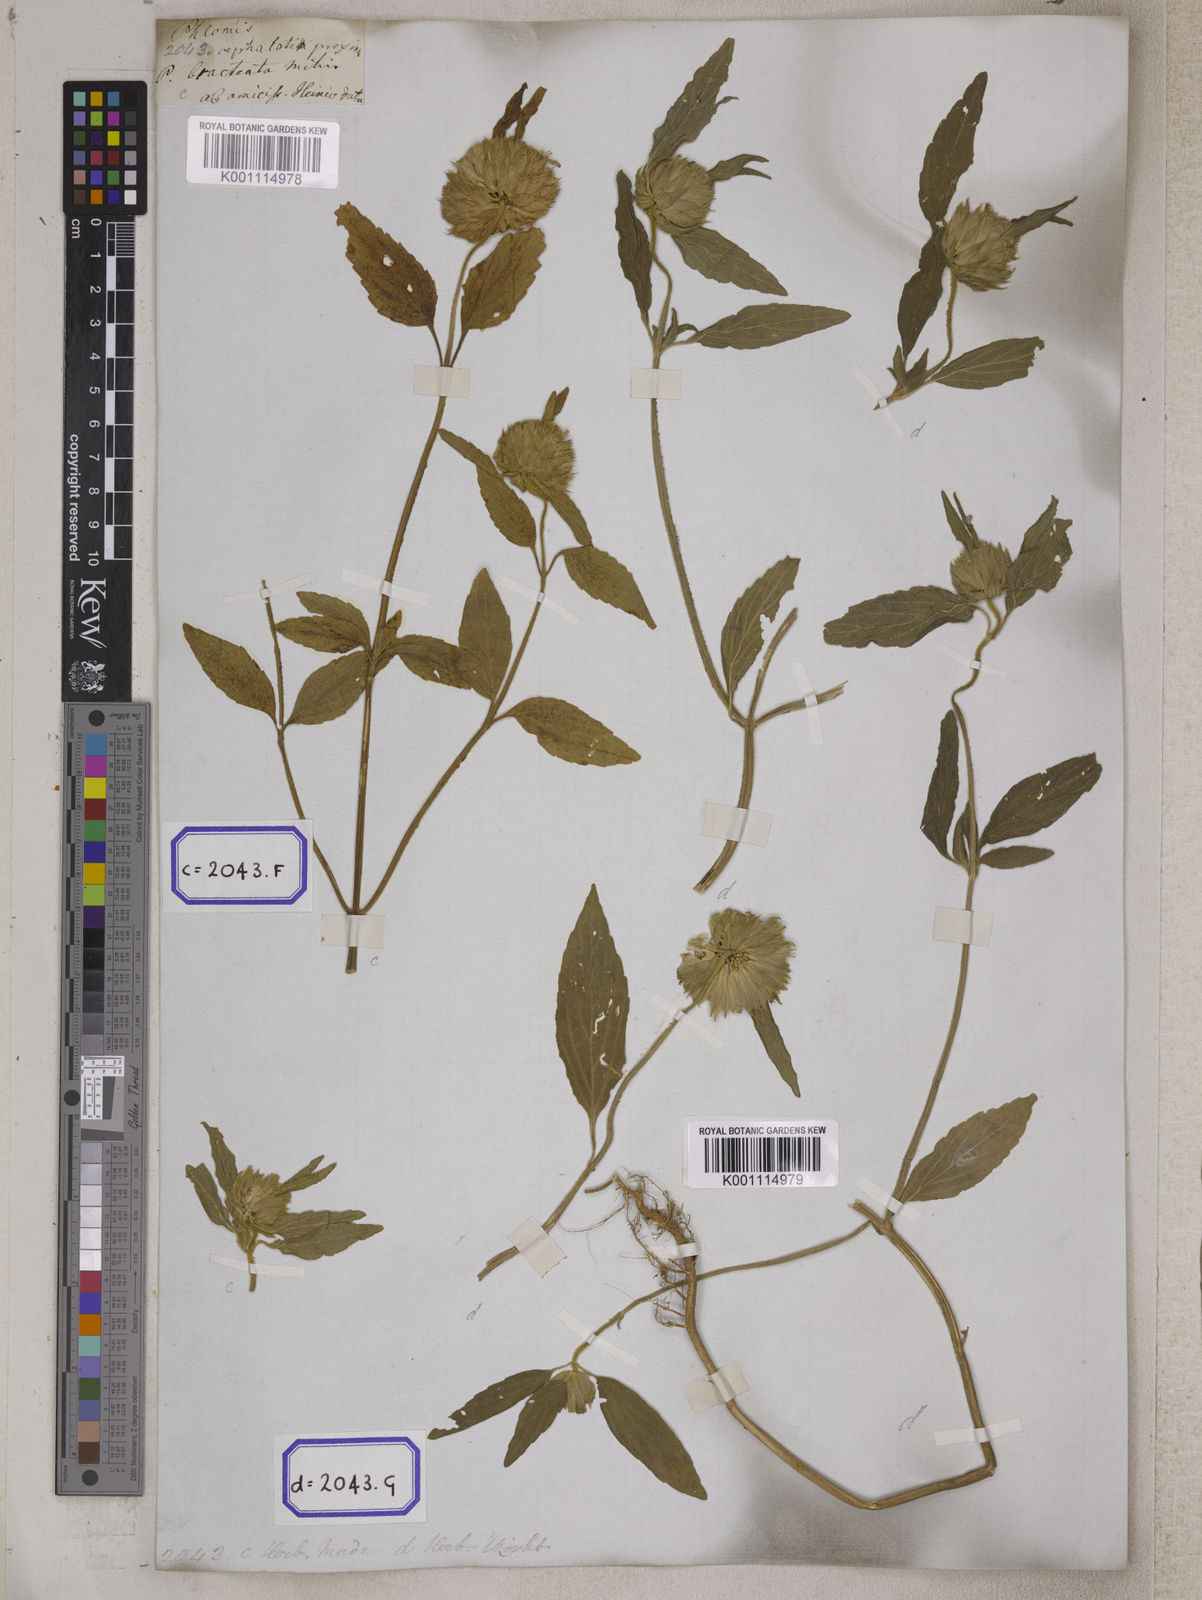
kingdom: Plantae
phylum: Tracheophyta
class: Magnoliopsida
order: Lamiales
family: Lamiaceae
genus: Leucas
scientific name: Leucas
